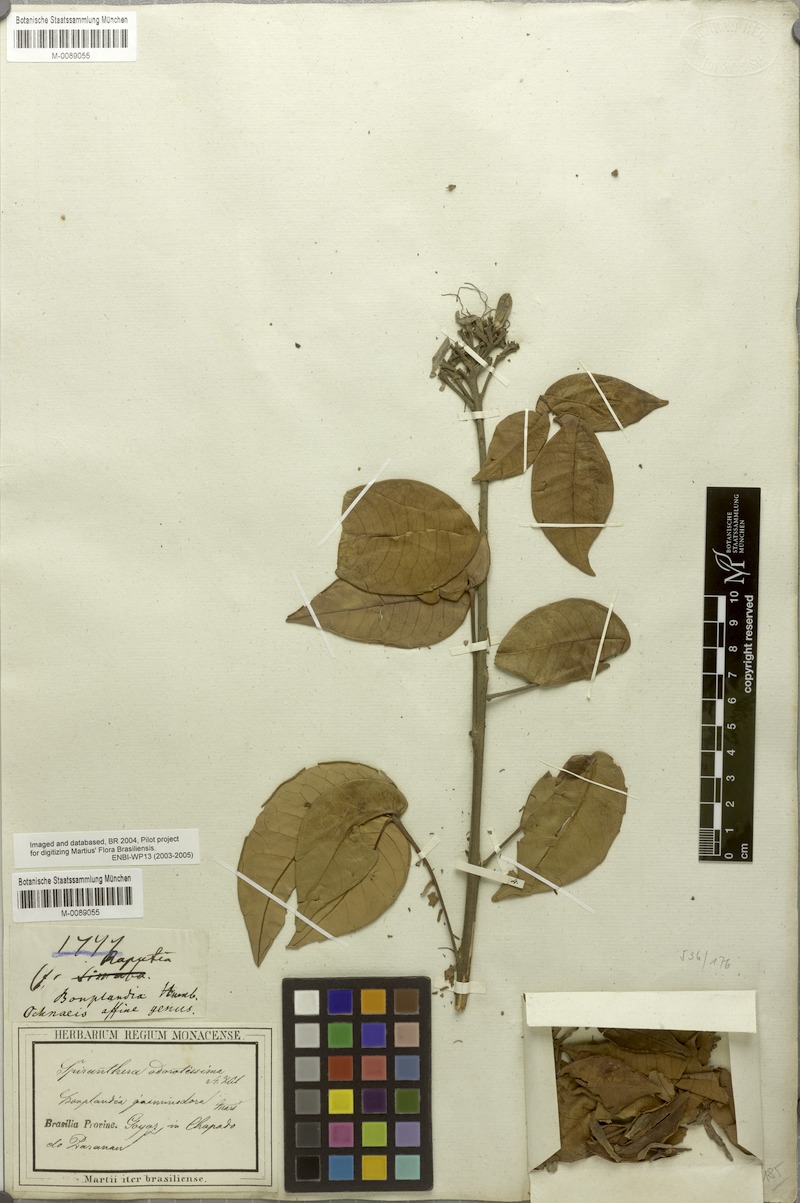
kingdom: Plantae
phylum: Tracheophyta
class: Magnoliopsida
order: Sapindales
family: Rutaceae
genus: Spiranthera
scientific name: Spiranthera odoratissima
